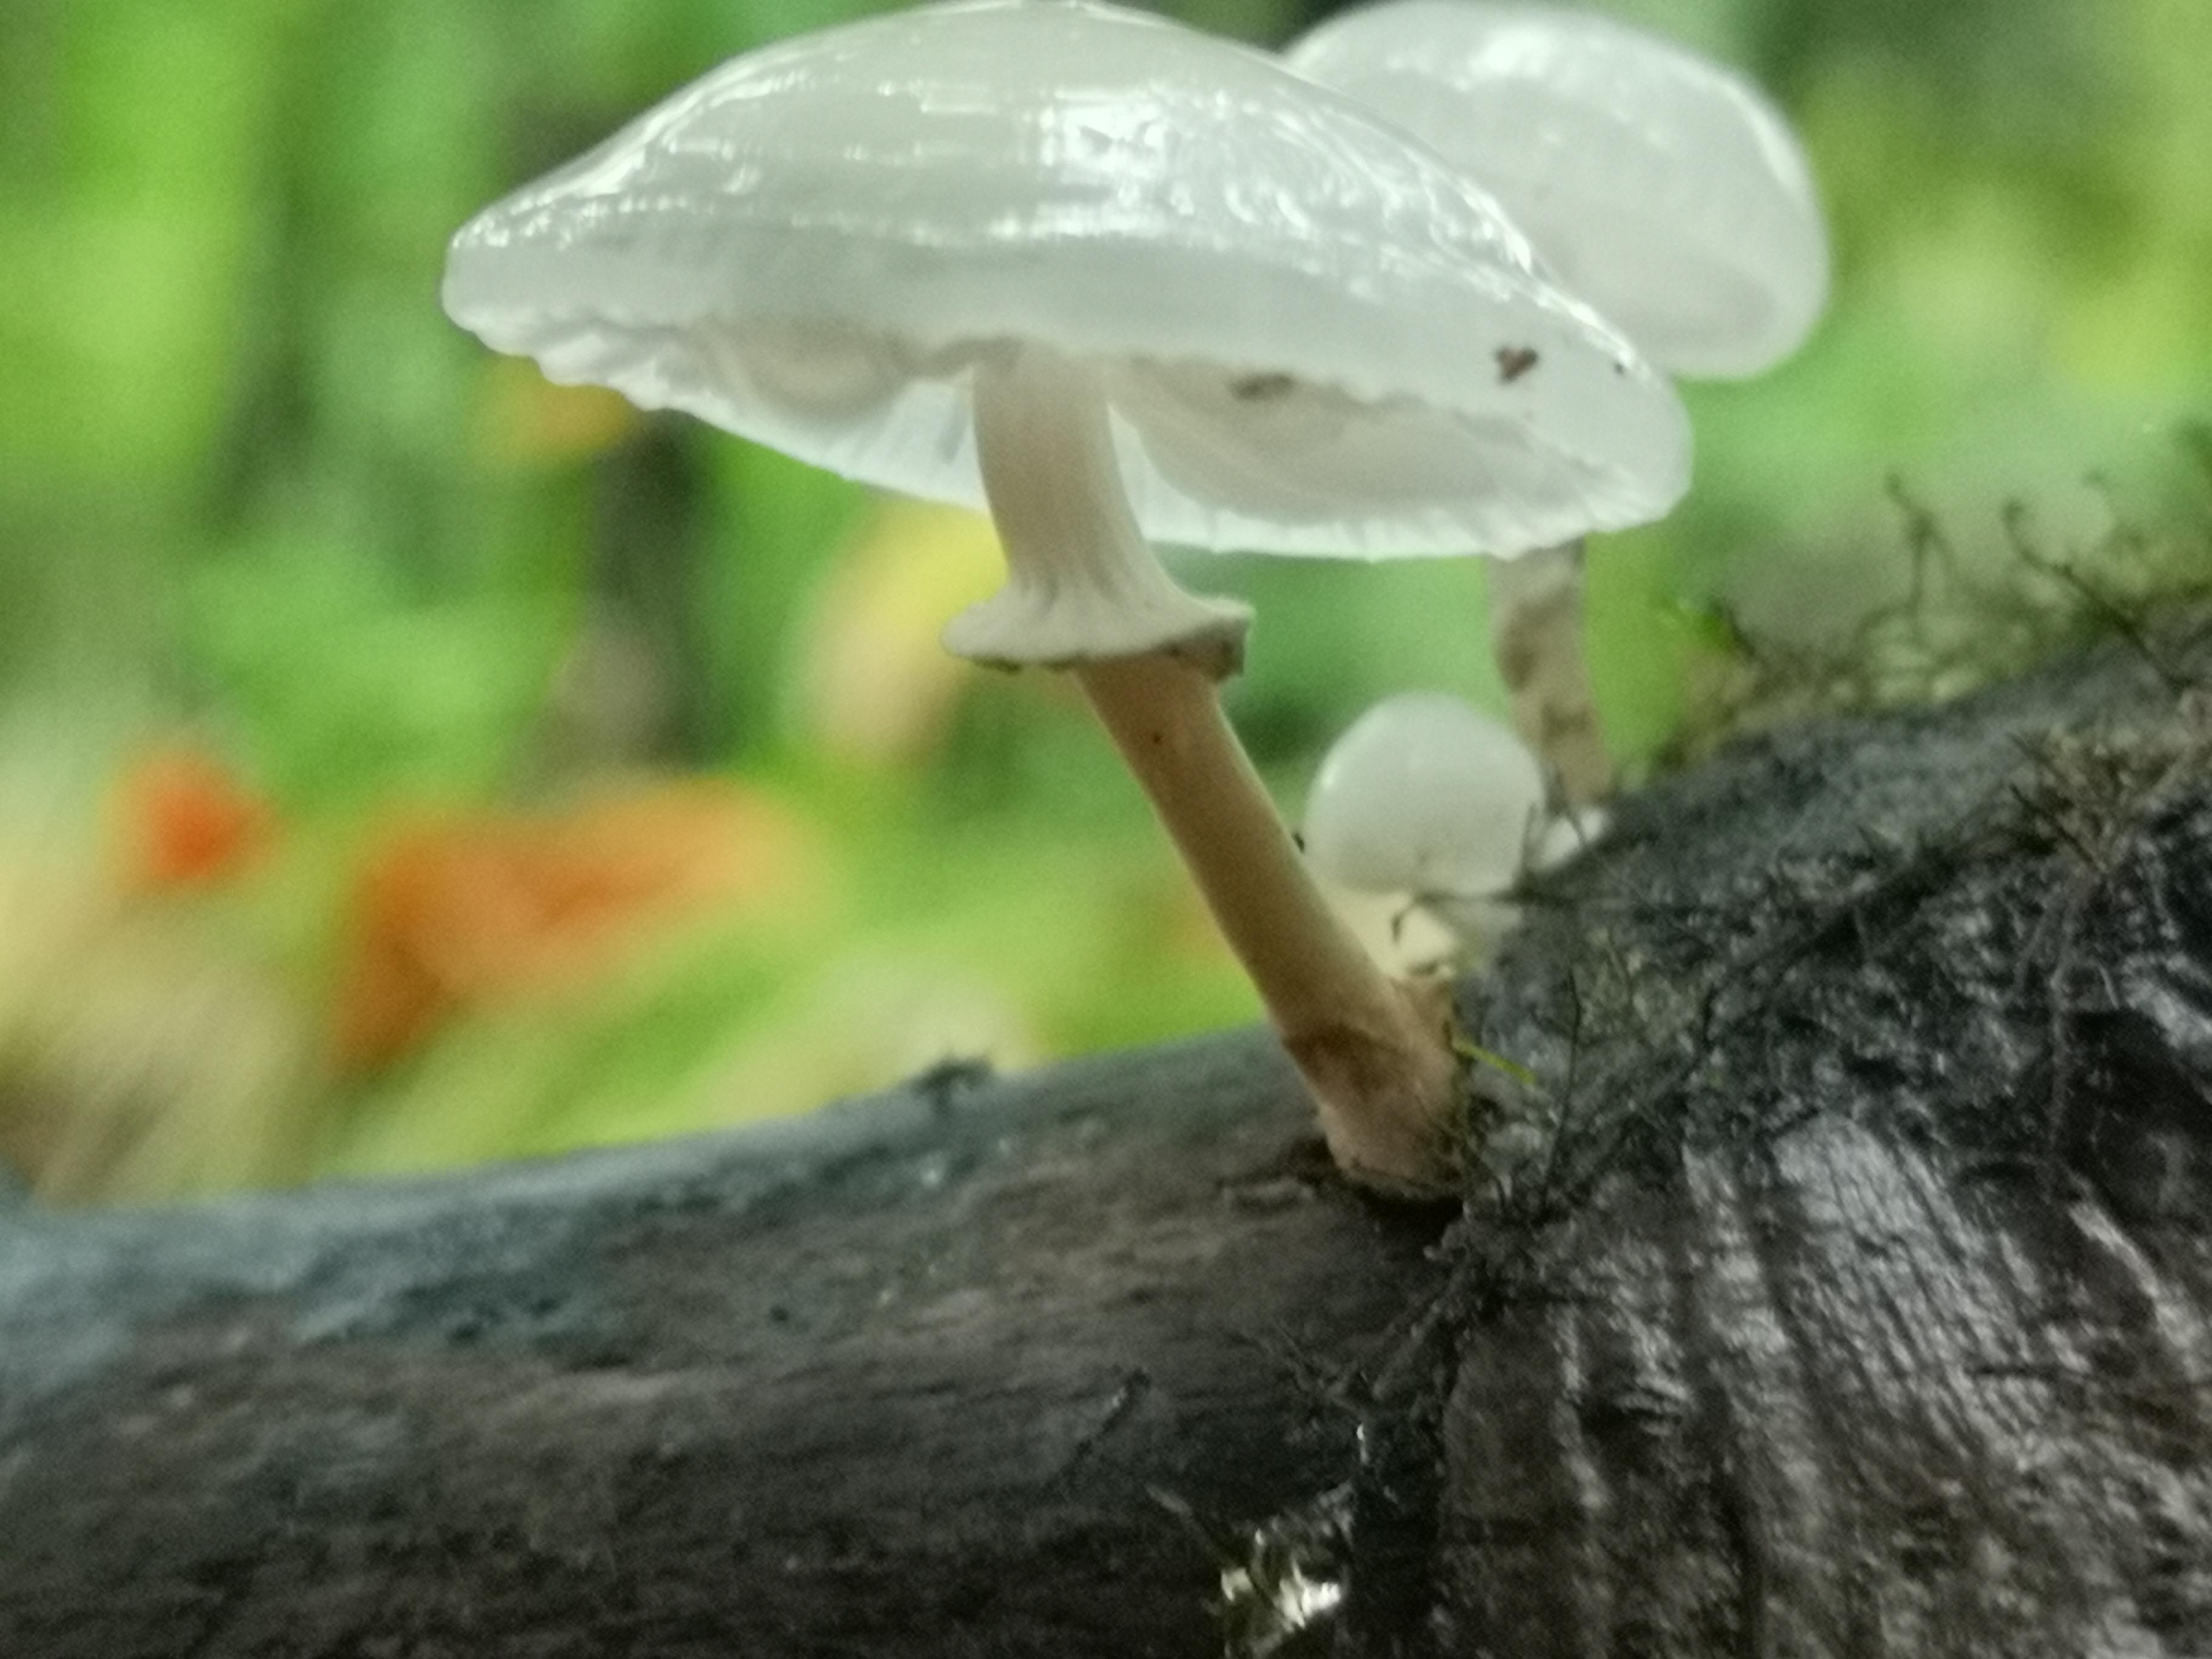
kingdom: Fungi
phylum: Basidiomycota
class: Agaricomycetes
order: Agaricales
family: Physalacriaceae
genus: Mucidula
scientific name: Mucidula mucida
